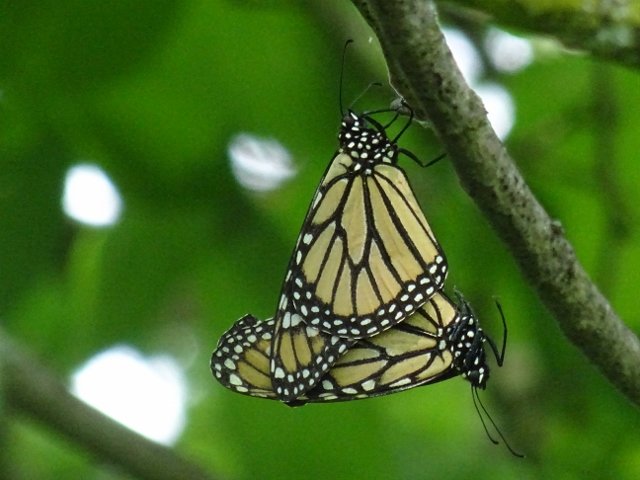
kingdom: Animalia
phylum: Arthropoda
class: Insecta
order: Lepidoptera
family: Nymphalidae
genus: Danaus
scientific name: Danaus plexippus
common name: Monarch
